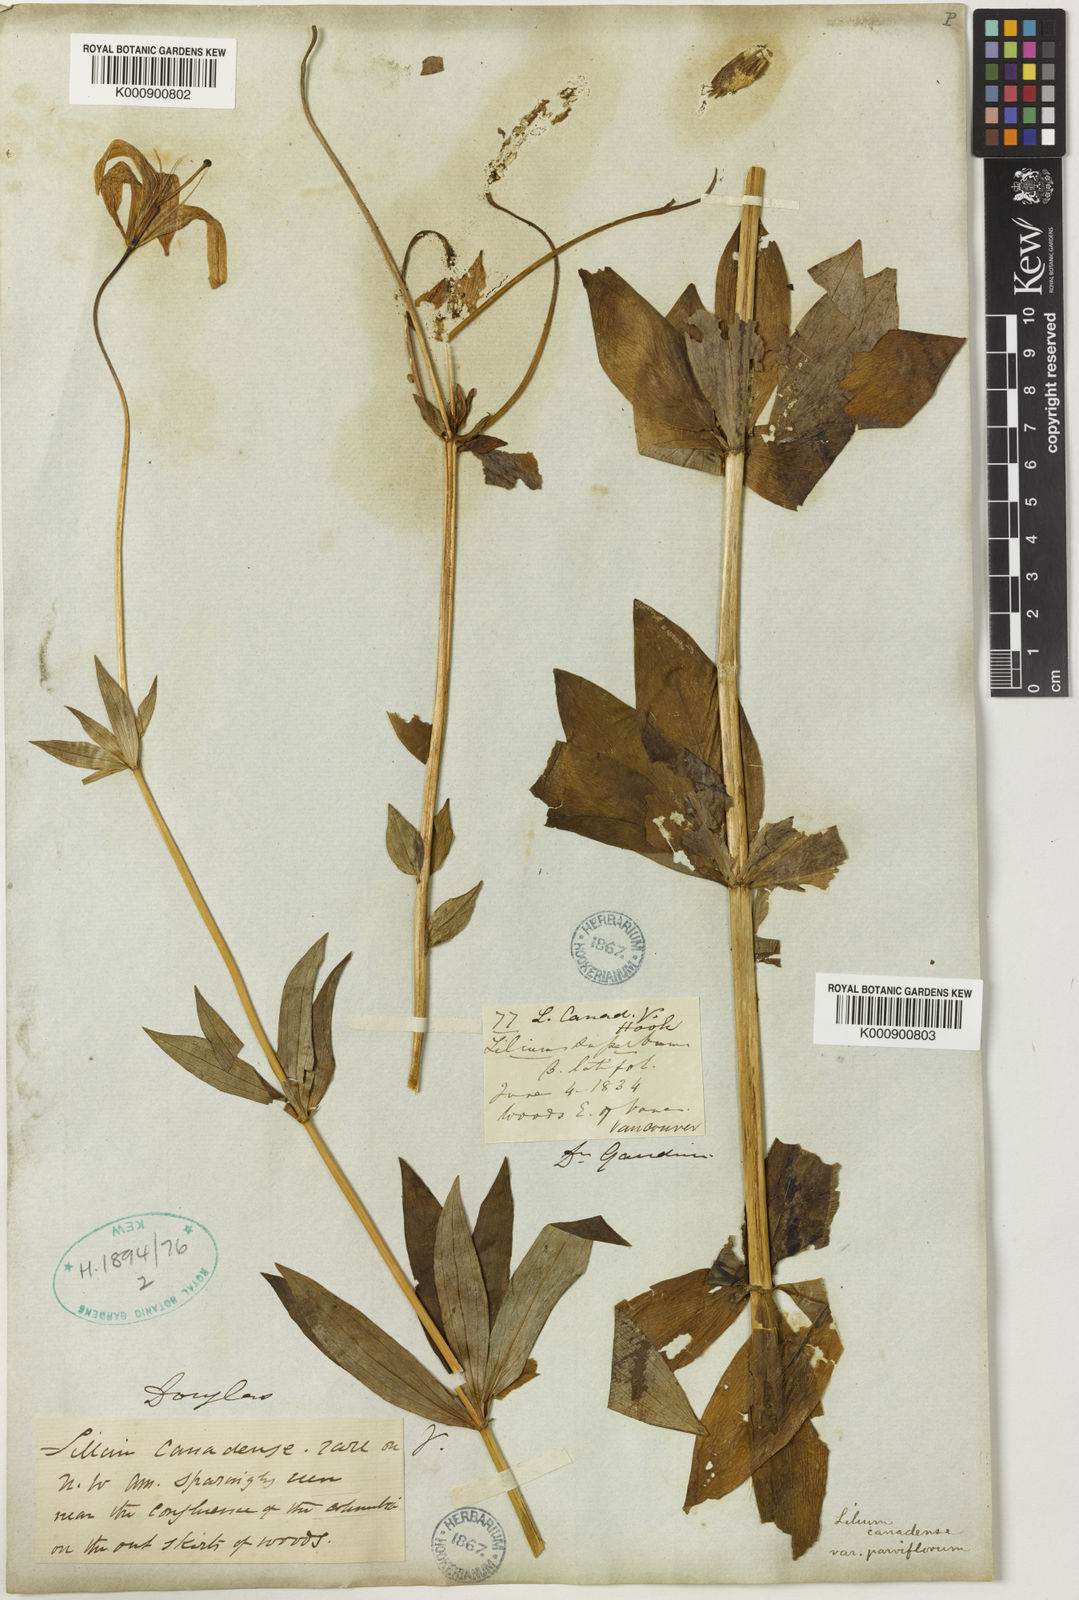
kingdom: Plantae
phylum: Tracheophyta
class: Liliopsida
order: Liliales
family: Liliaceae
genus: Lilium
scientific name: Lilium columbianum
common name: Columbia lily
